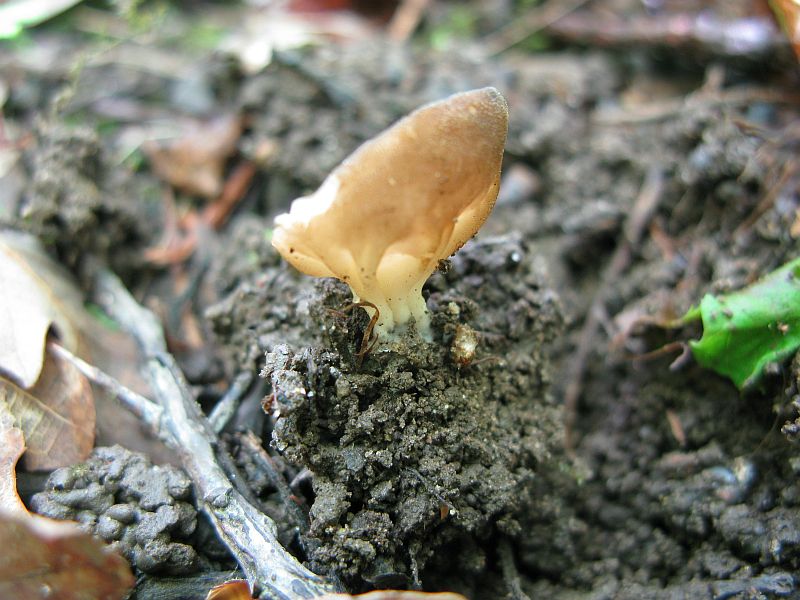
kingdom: Fungi
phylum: Ascomycota
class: Pezizomycetes
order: Pezizales
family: Helvellaceae
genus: Helvella
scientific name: Helvella acetabulum
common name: pokal-foldhat
